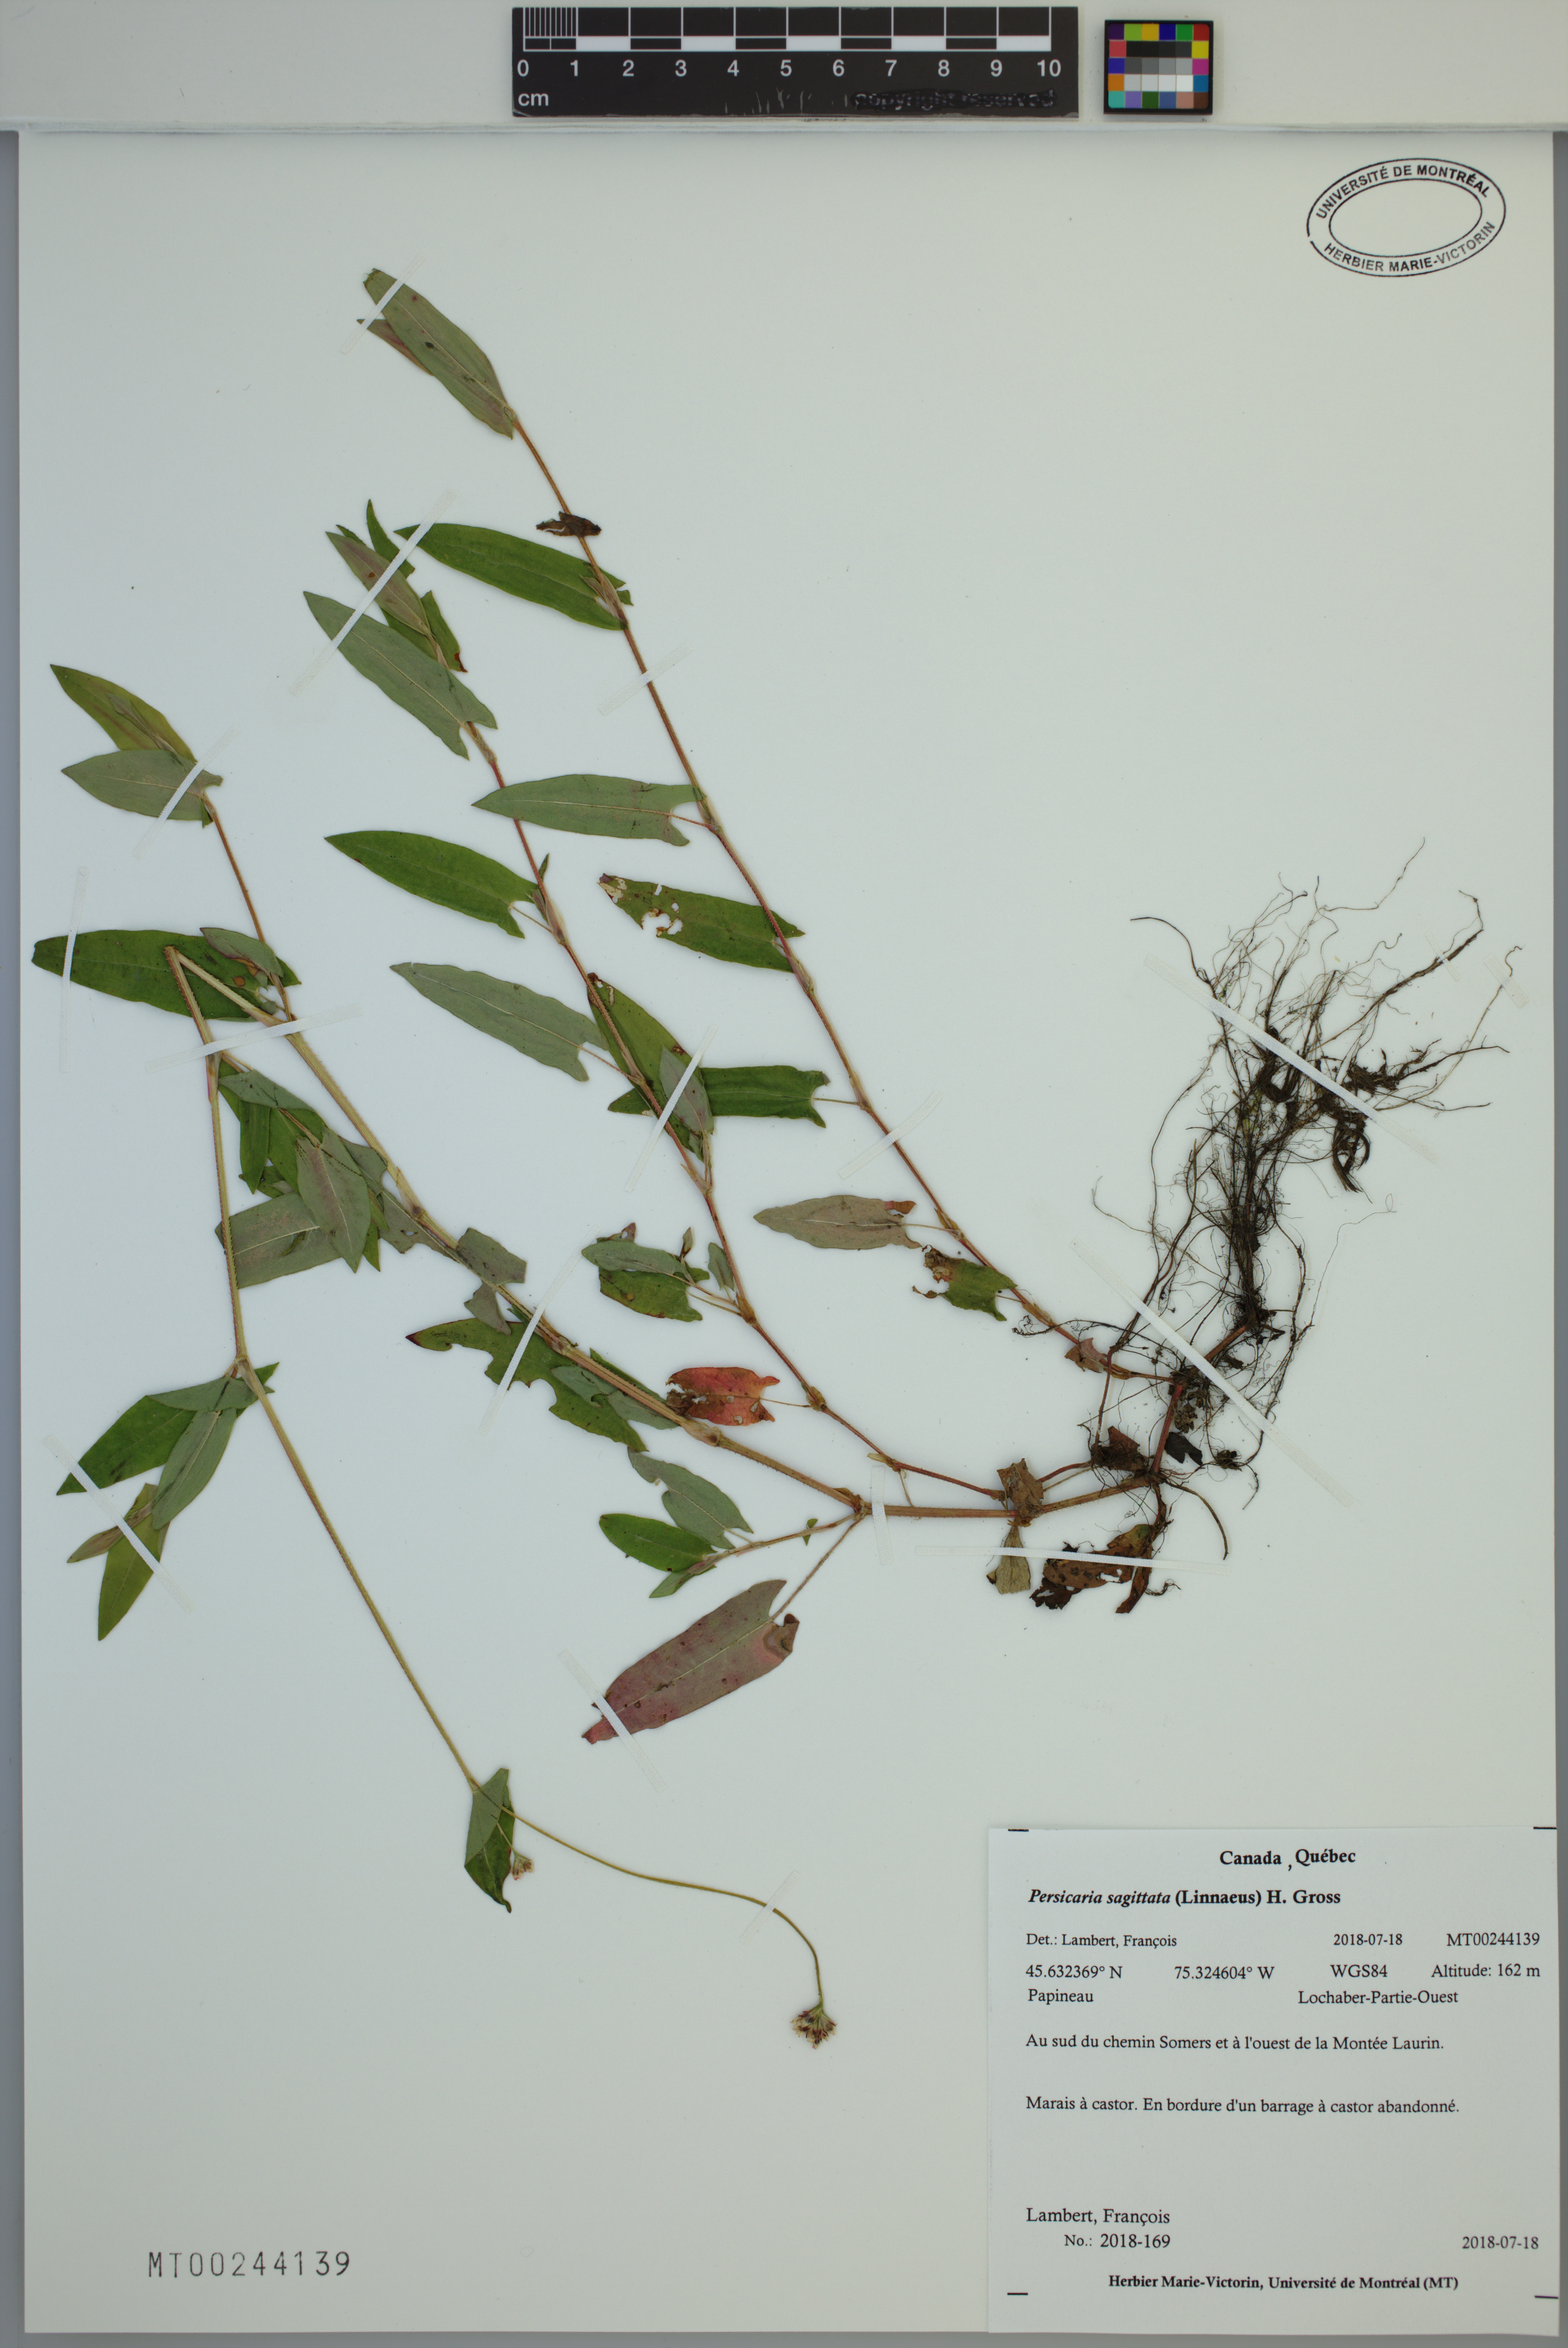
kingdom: Plantae
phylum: Tracheophyta
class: Magnoliopsida
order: Caryophyllales
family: Polygonaceae
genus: Persicaria
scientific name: Persicaria sagittata
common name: American tearthumb
